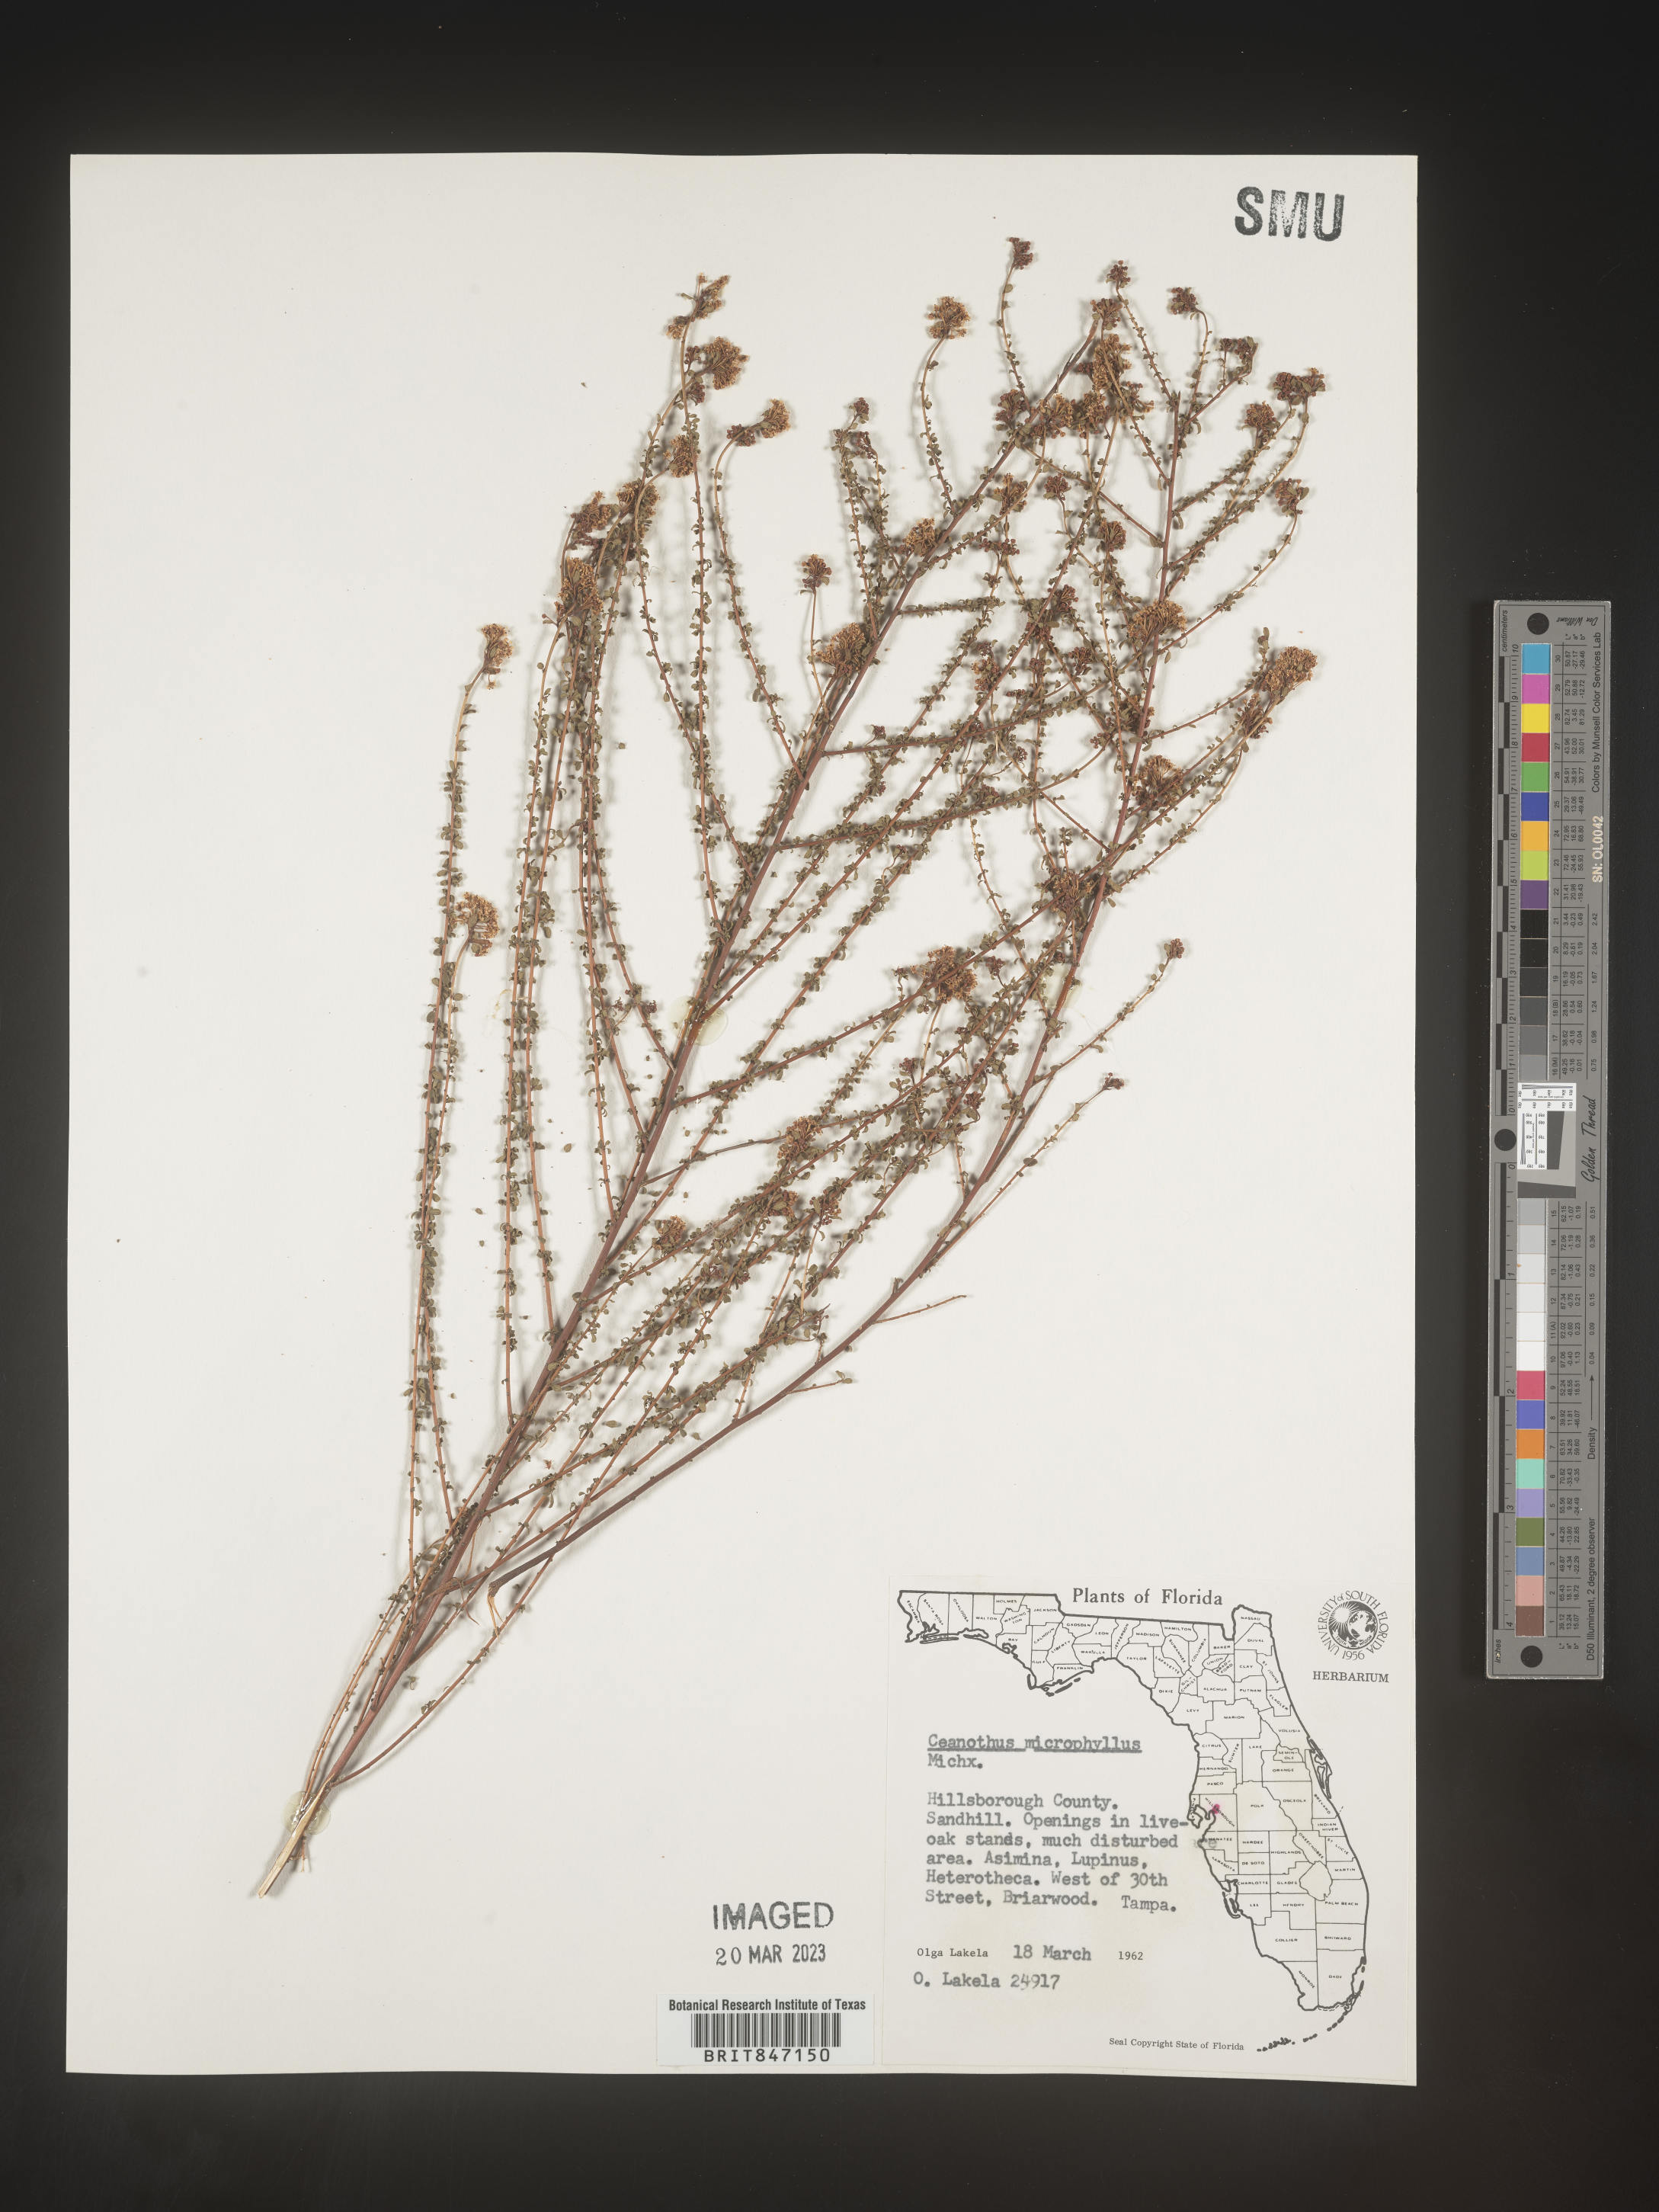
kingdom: Plantae
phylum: Tracheophyta
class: Magnoliopsida
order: Rosales
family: Rhamnaceae
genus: Ceanothus
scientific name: Ceanothus
